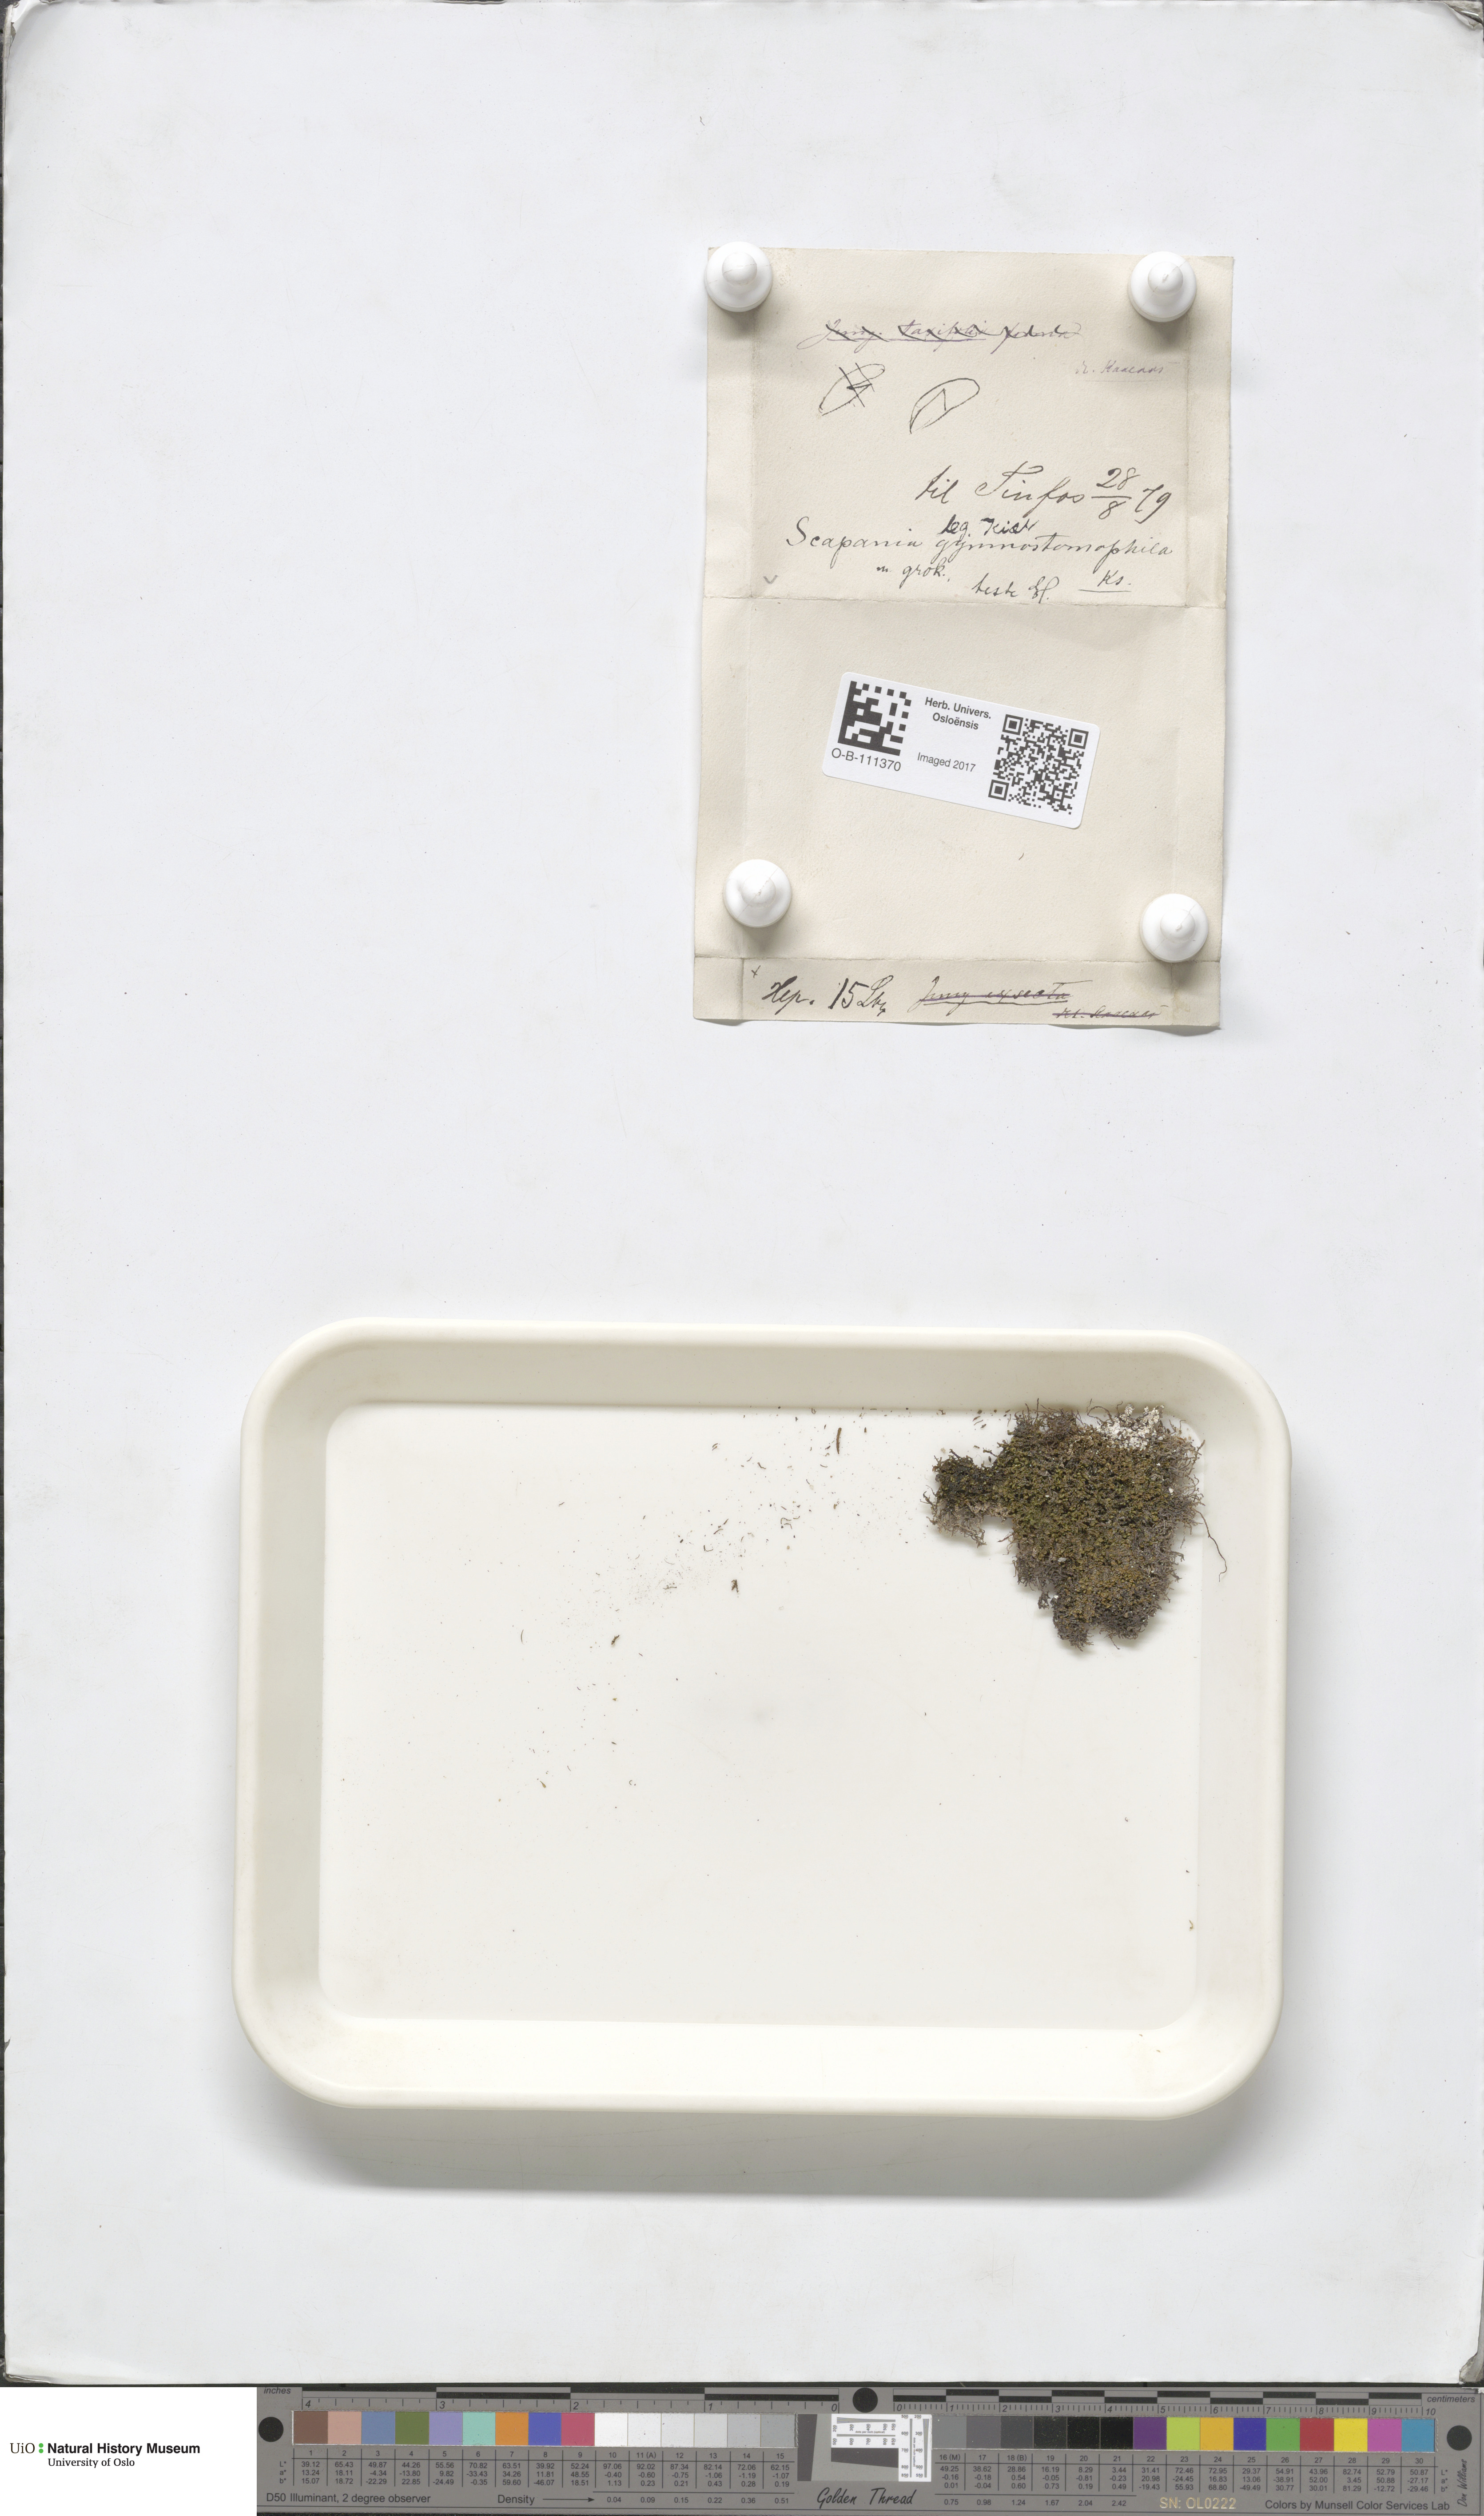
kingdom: Plantae
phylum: Marchantiophyta
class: Jungermanniopsida
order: Jungermanniales
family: Scapaniaceae
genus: Scapania
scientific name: Scapania gymnostomophila
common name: Narrow-lobed earwort
